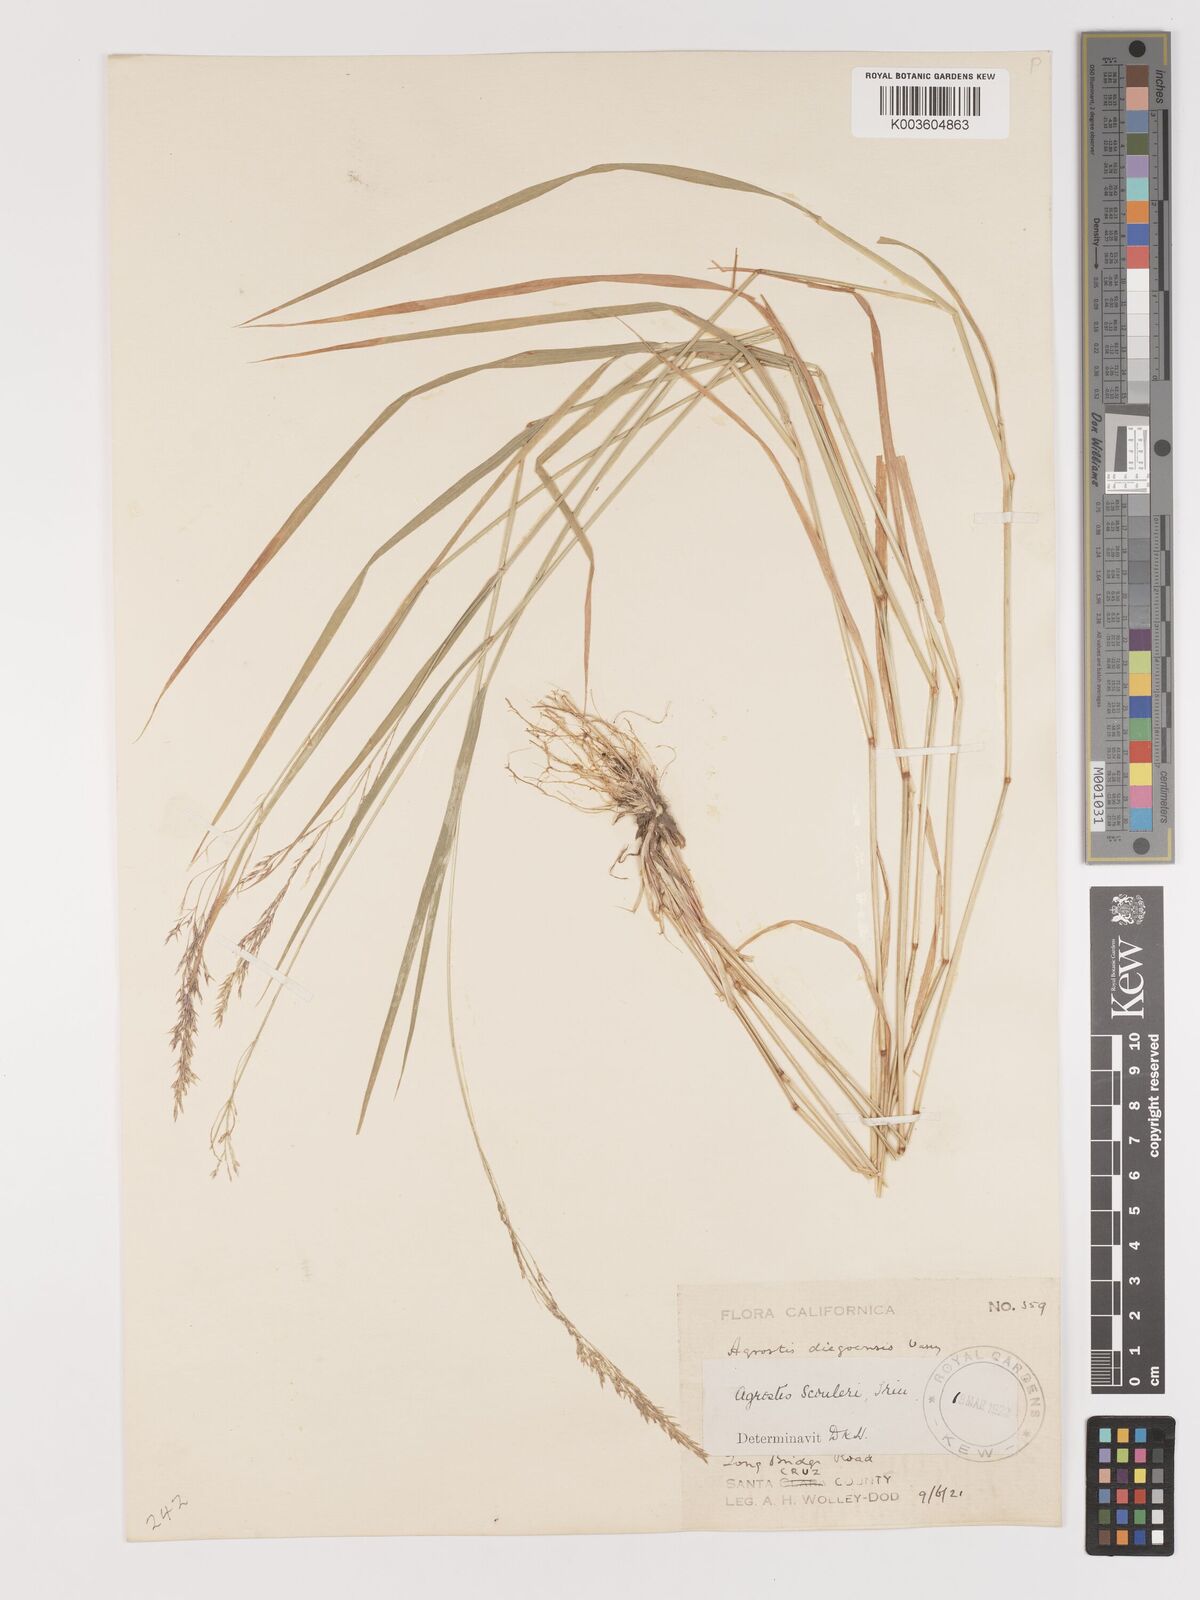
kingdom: Plantae
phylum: Tracheophyta
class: Liliopsida
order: Poales
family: Poaceae
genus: Agrostis
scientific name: Agrostis
